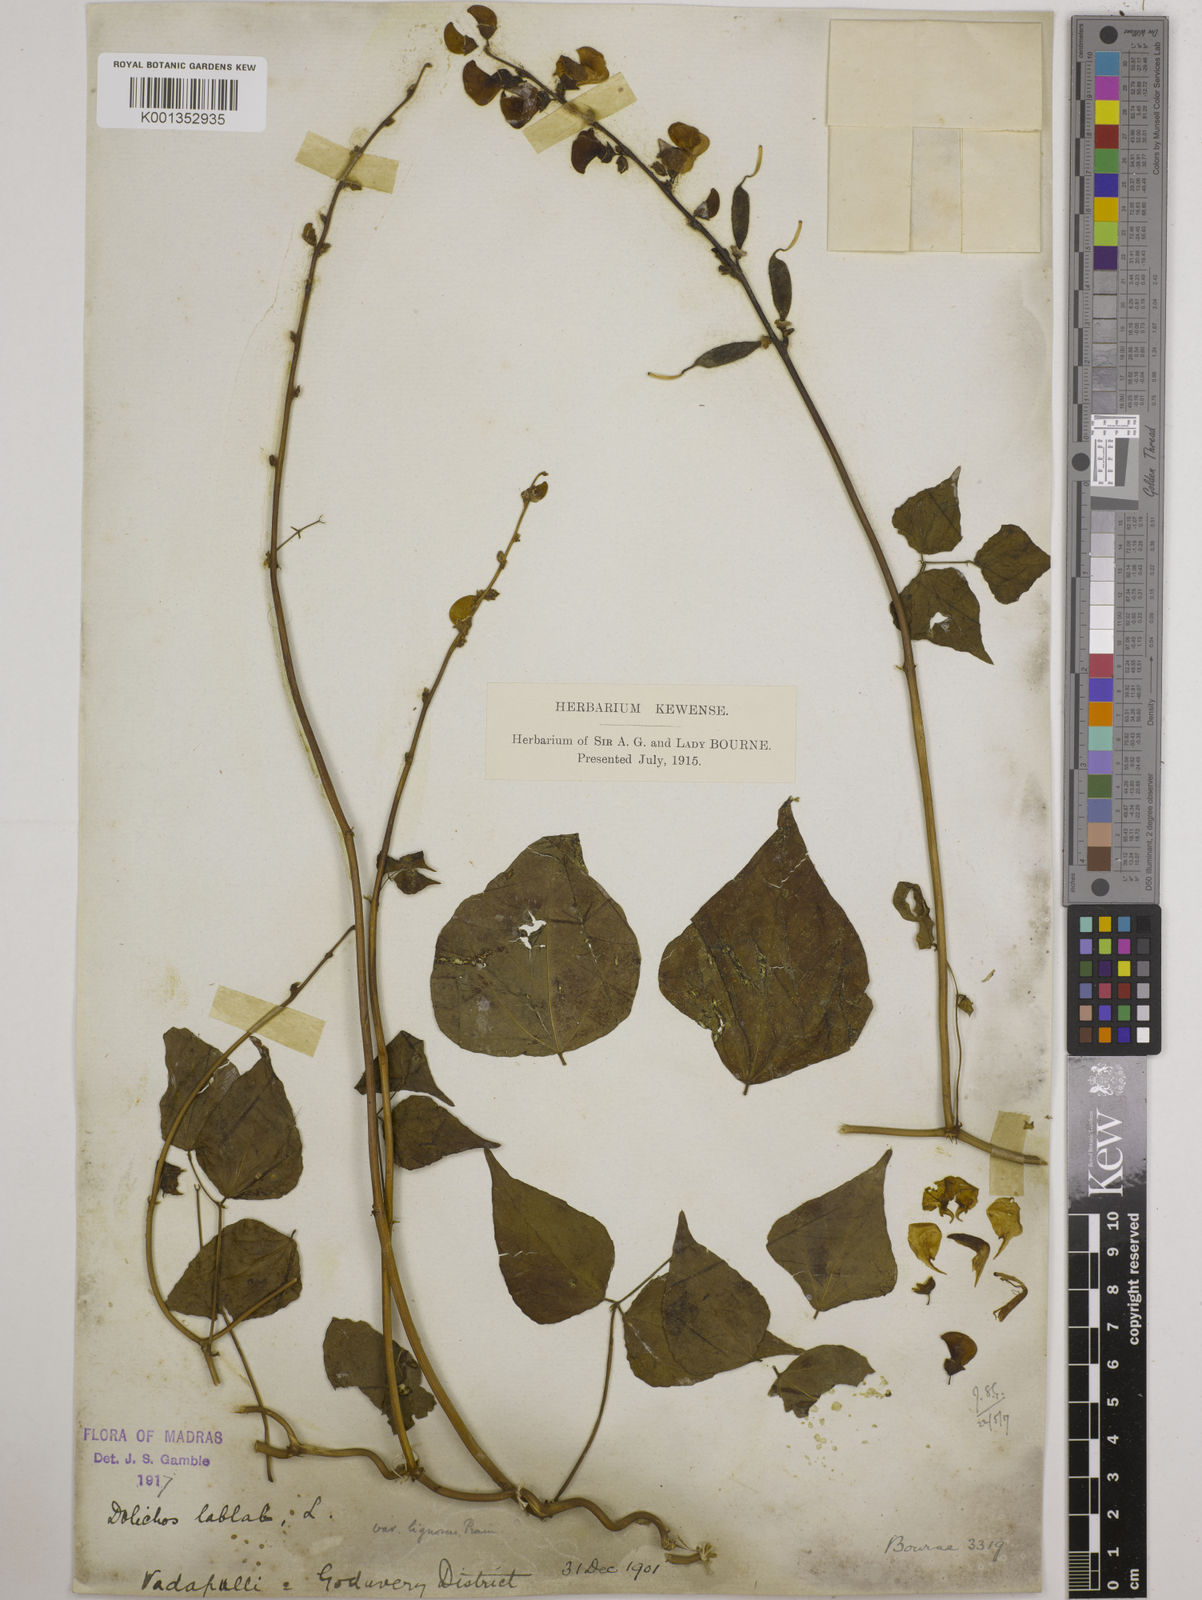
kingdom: Plantae
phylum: Tracheophyta
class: Magnoliopsida
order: Fabales
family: Fabaceae
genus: Lablab
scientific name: Lablab purpureus
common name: Lablab-bean
